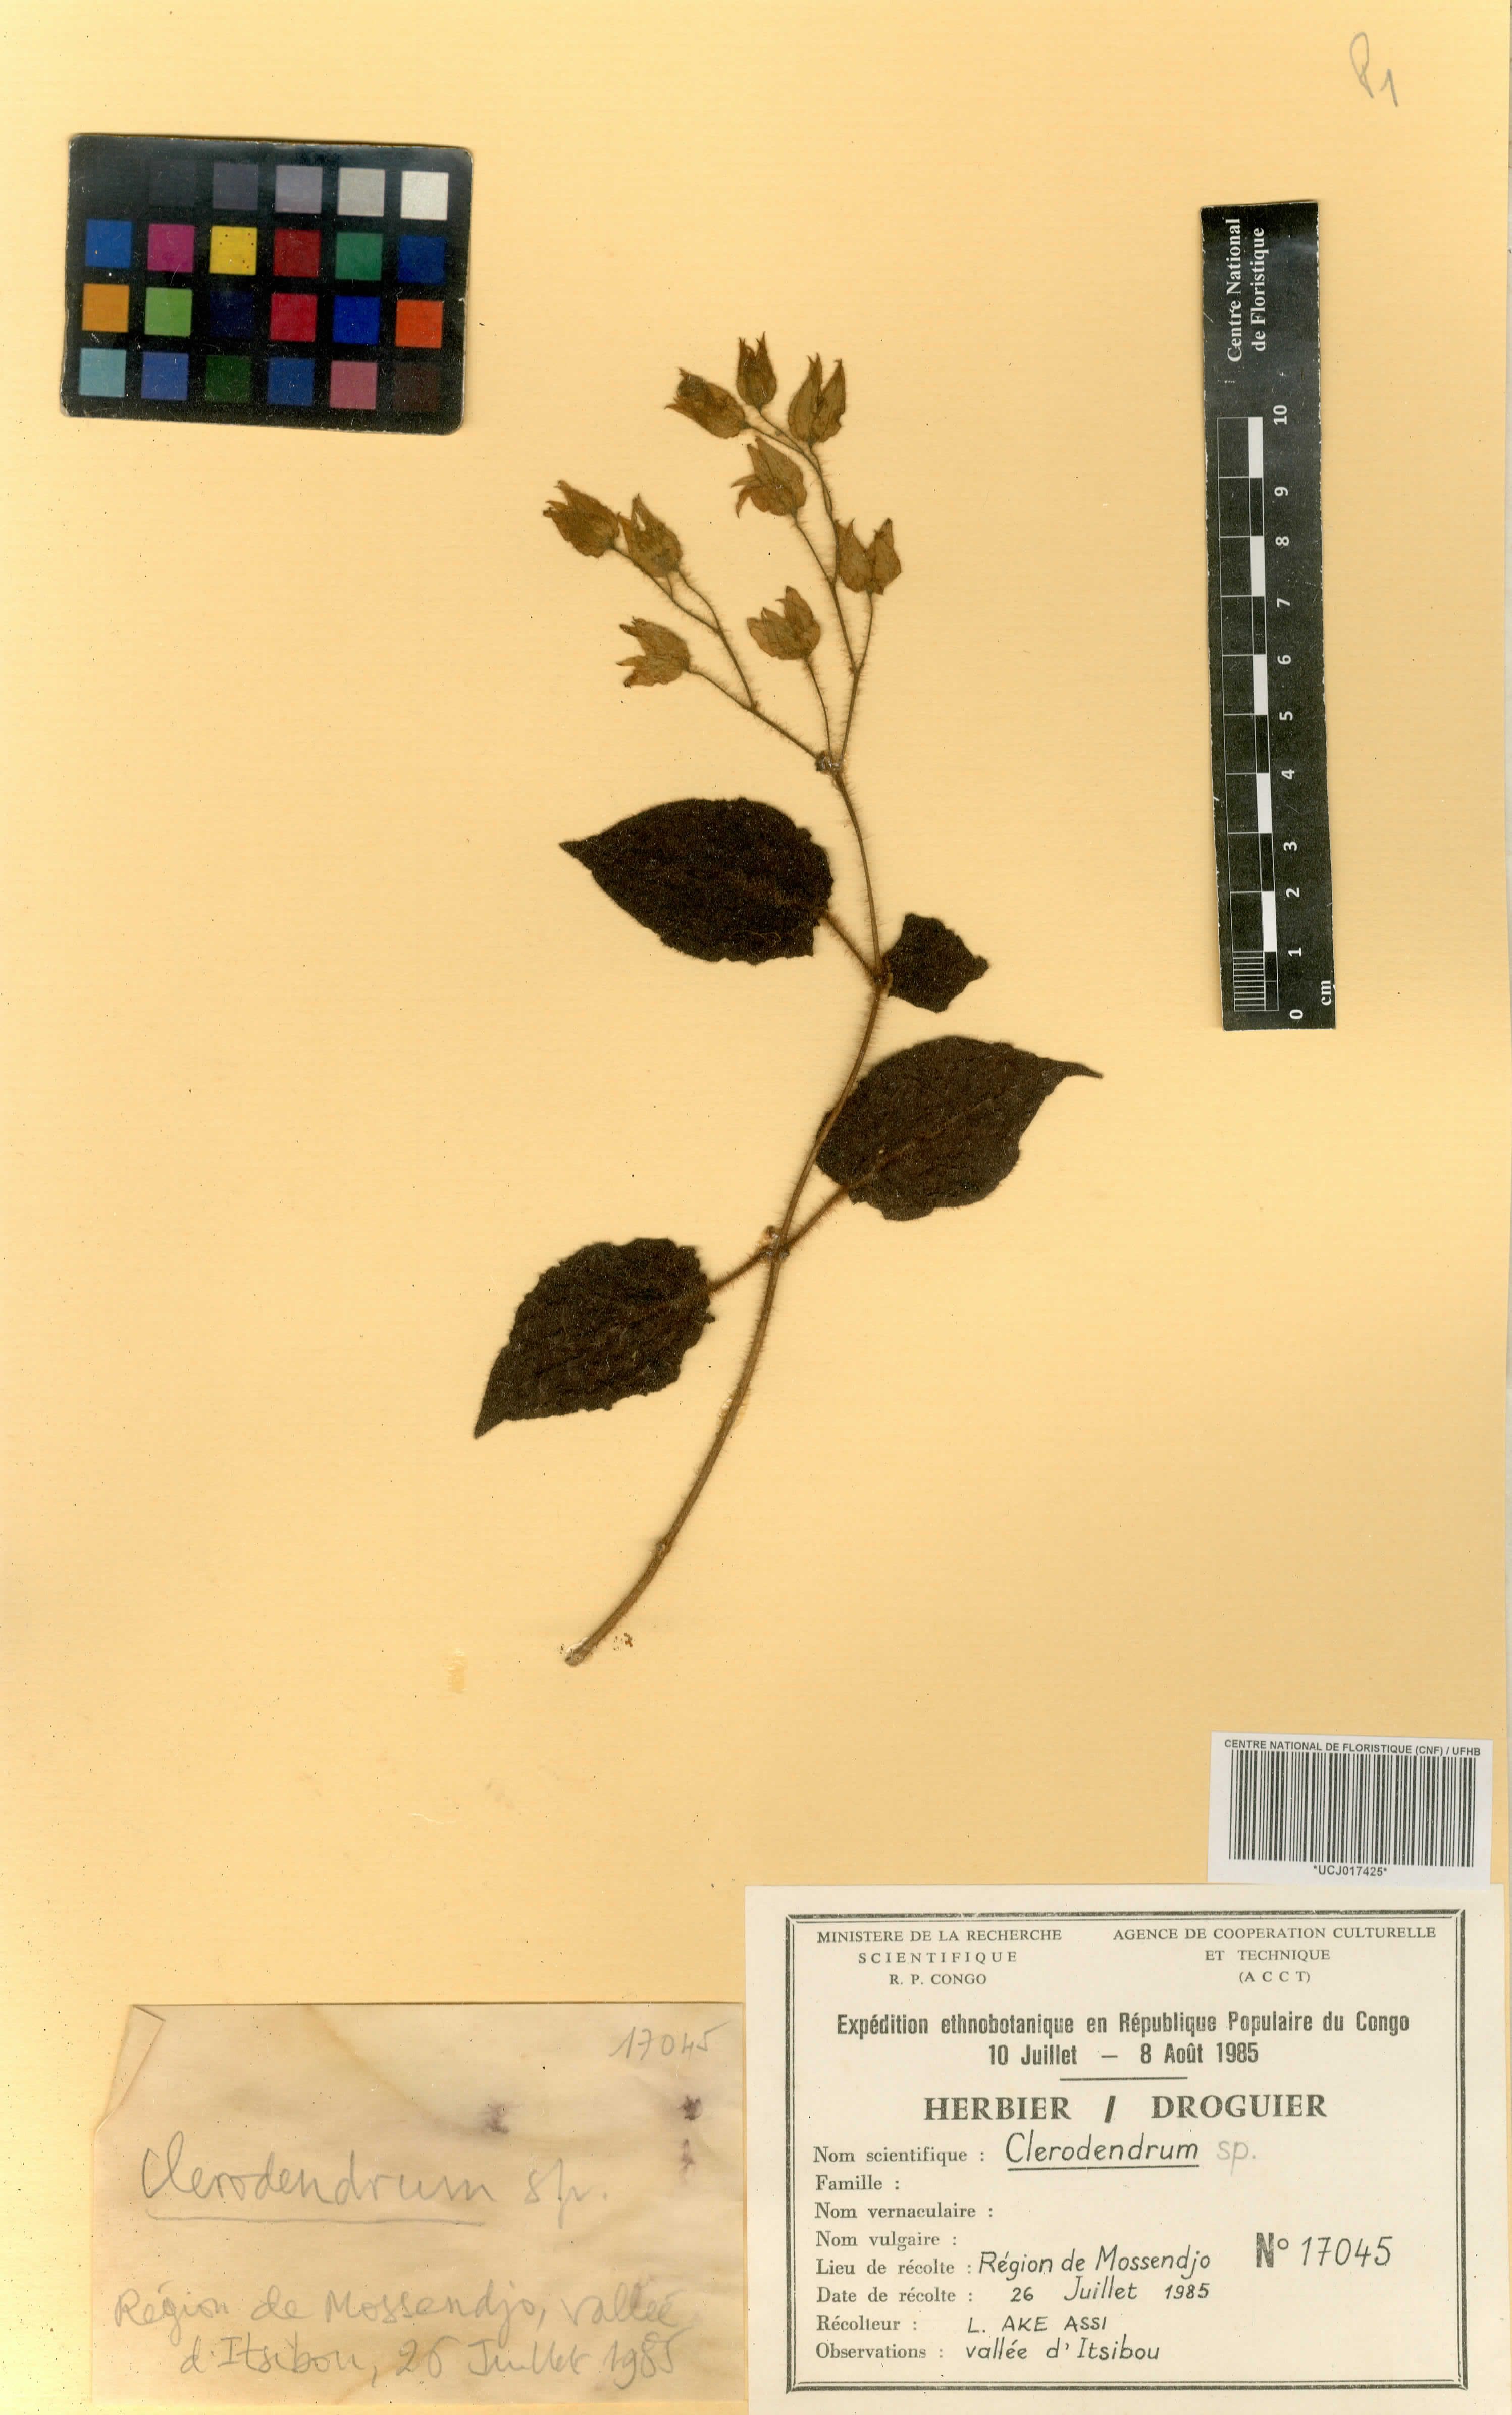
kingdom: Plantae
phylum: Tracheophyta
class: Magnoliopsida
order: Lamiales
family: Lamiaceae
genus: Clerodendrum
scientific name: Clerodendrum
